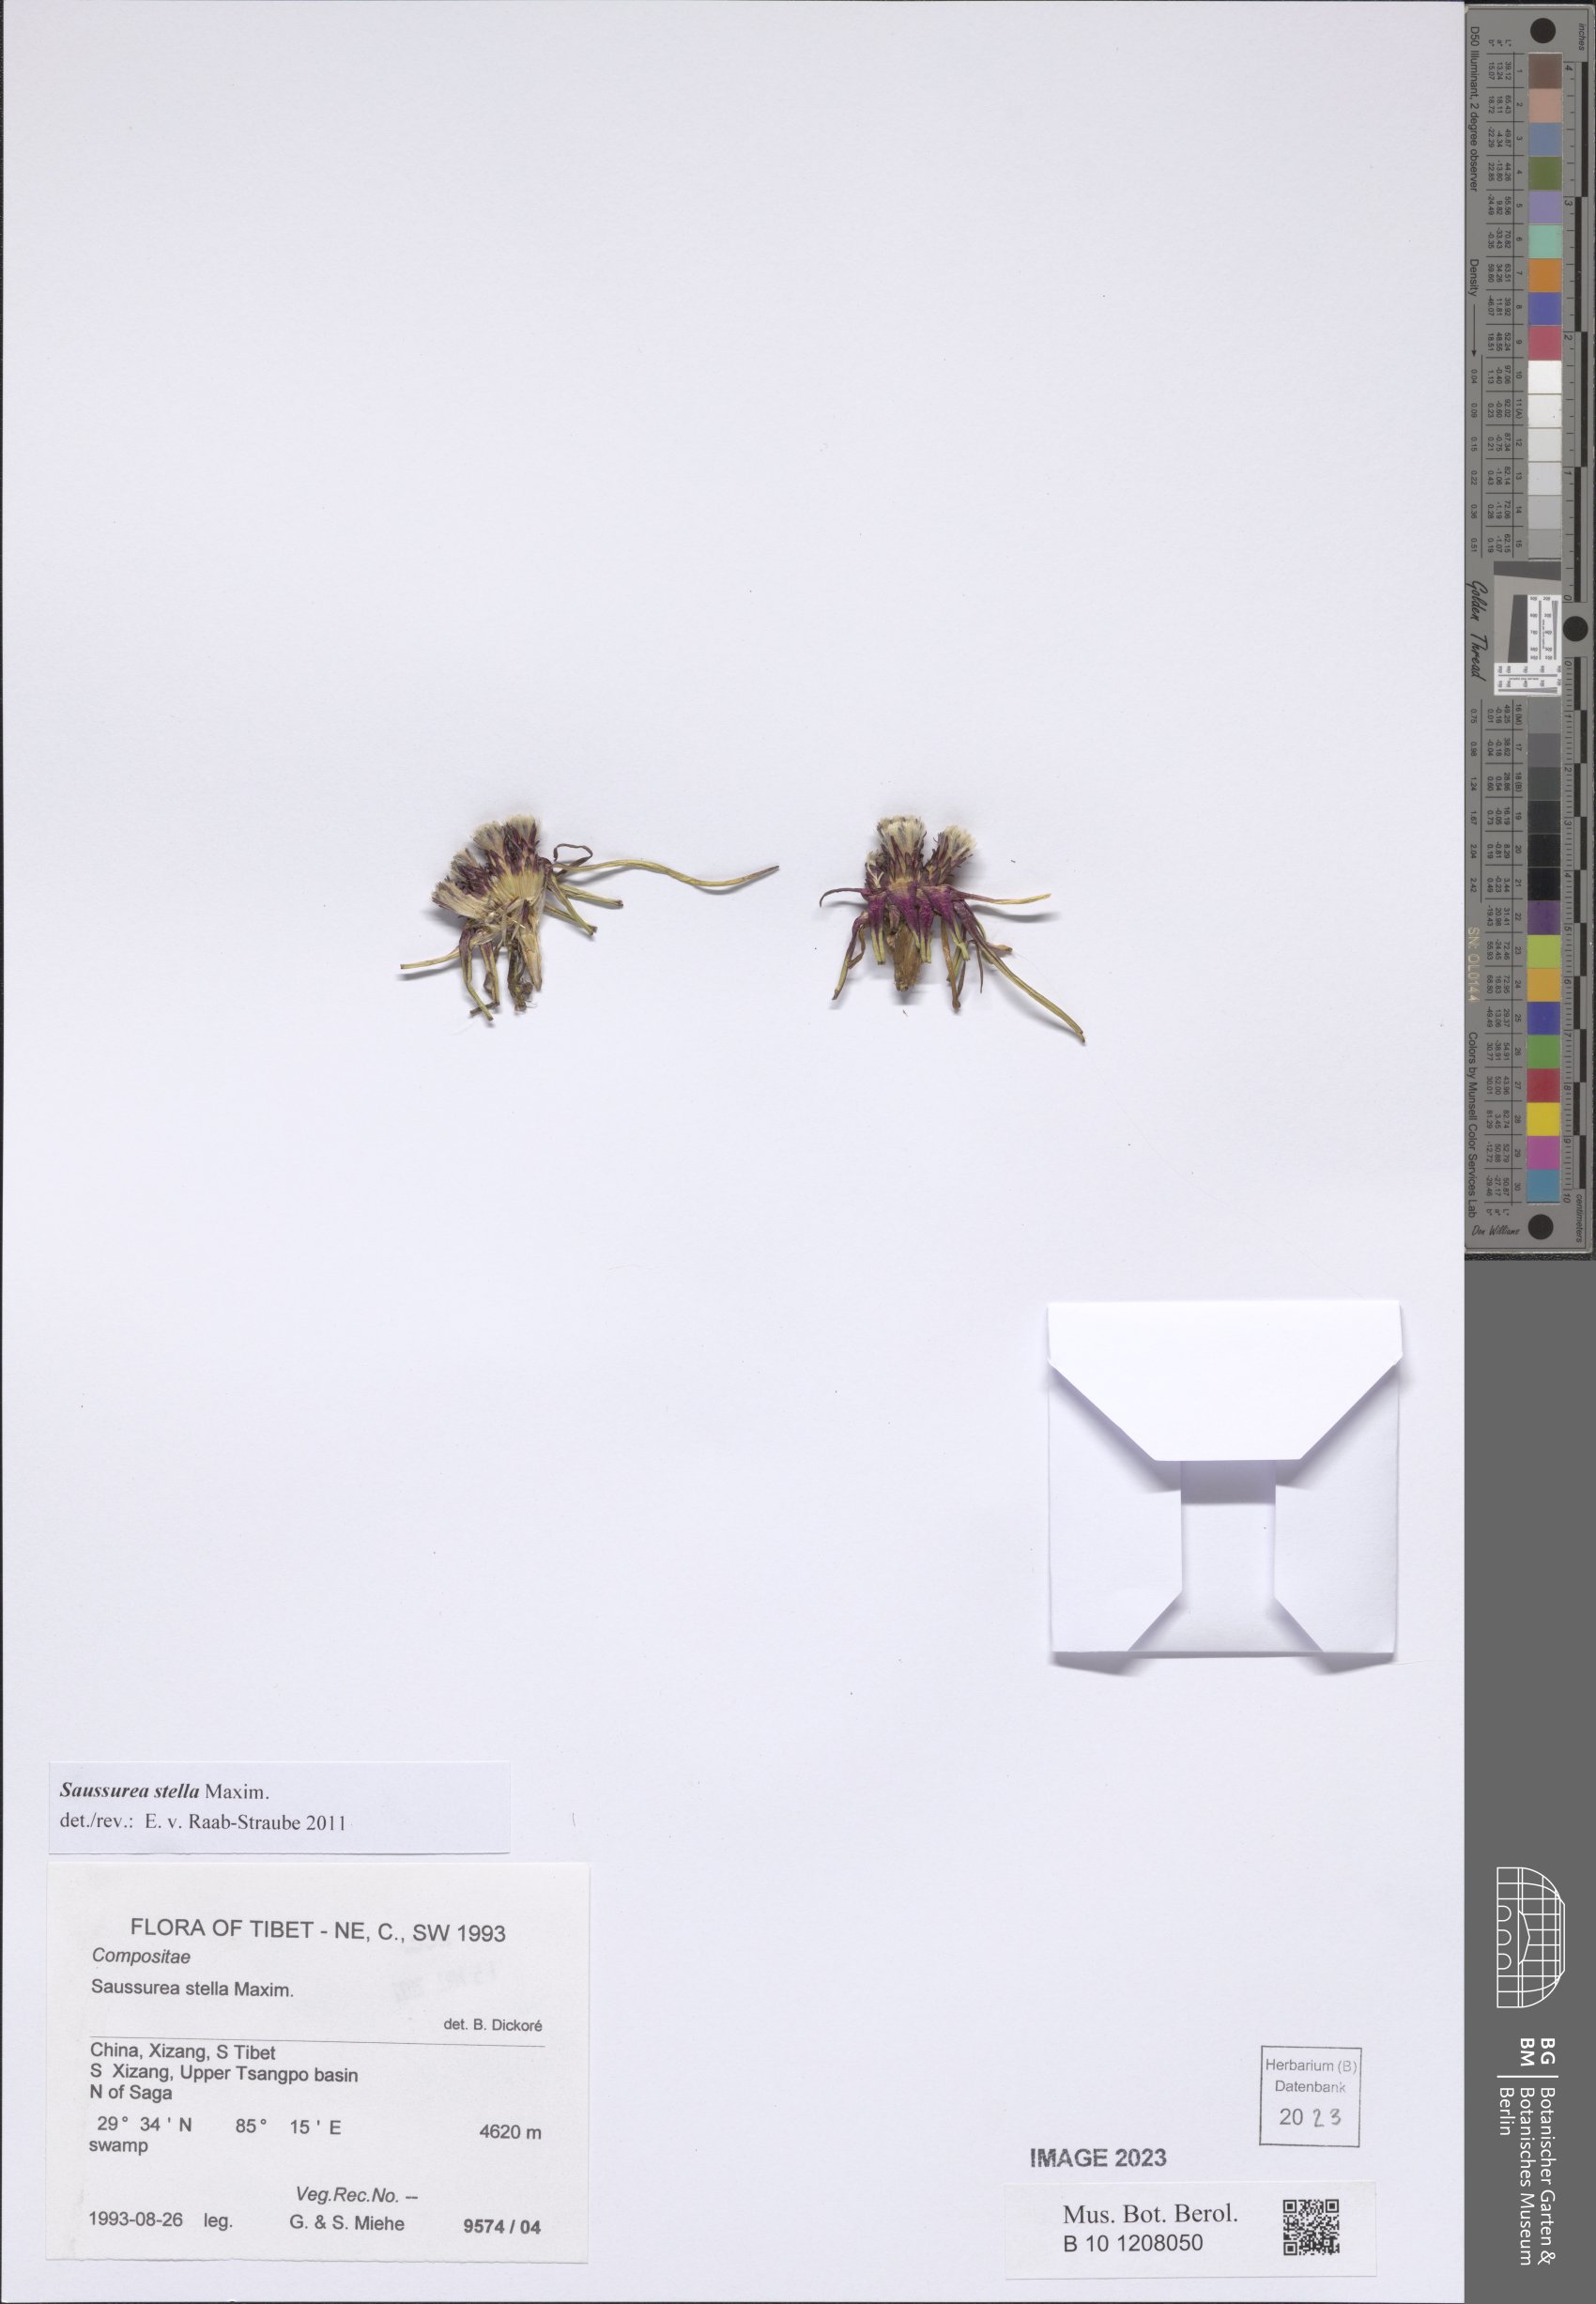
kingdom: Plantae
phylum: Tracheophyta
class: Magnoliopsida
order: Asterales
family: Asteraceae
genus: Saussurea
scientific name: Saussurea stella
